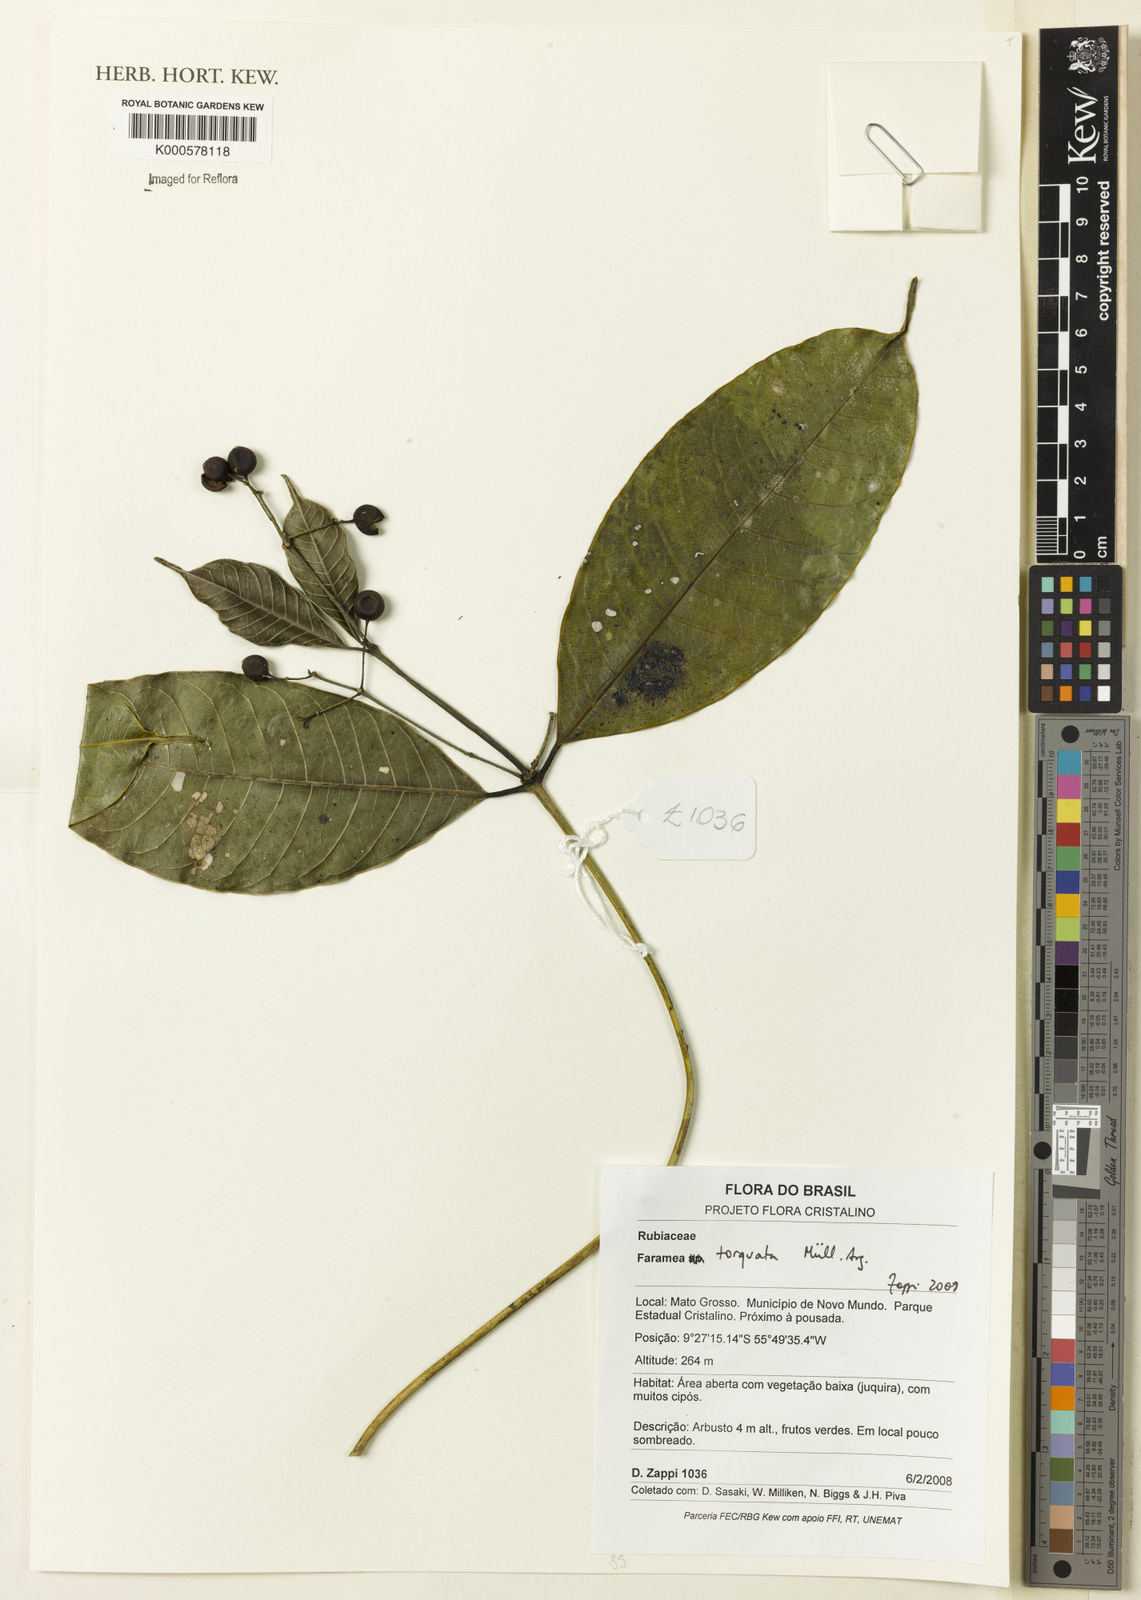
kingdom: Plantae
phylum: Tracheophyta
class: Magnoliopsida
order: Gentianales
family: Rubiaceae
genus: Faramea
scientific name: Faramea
